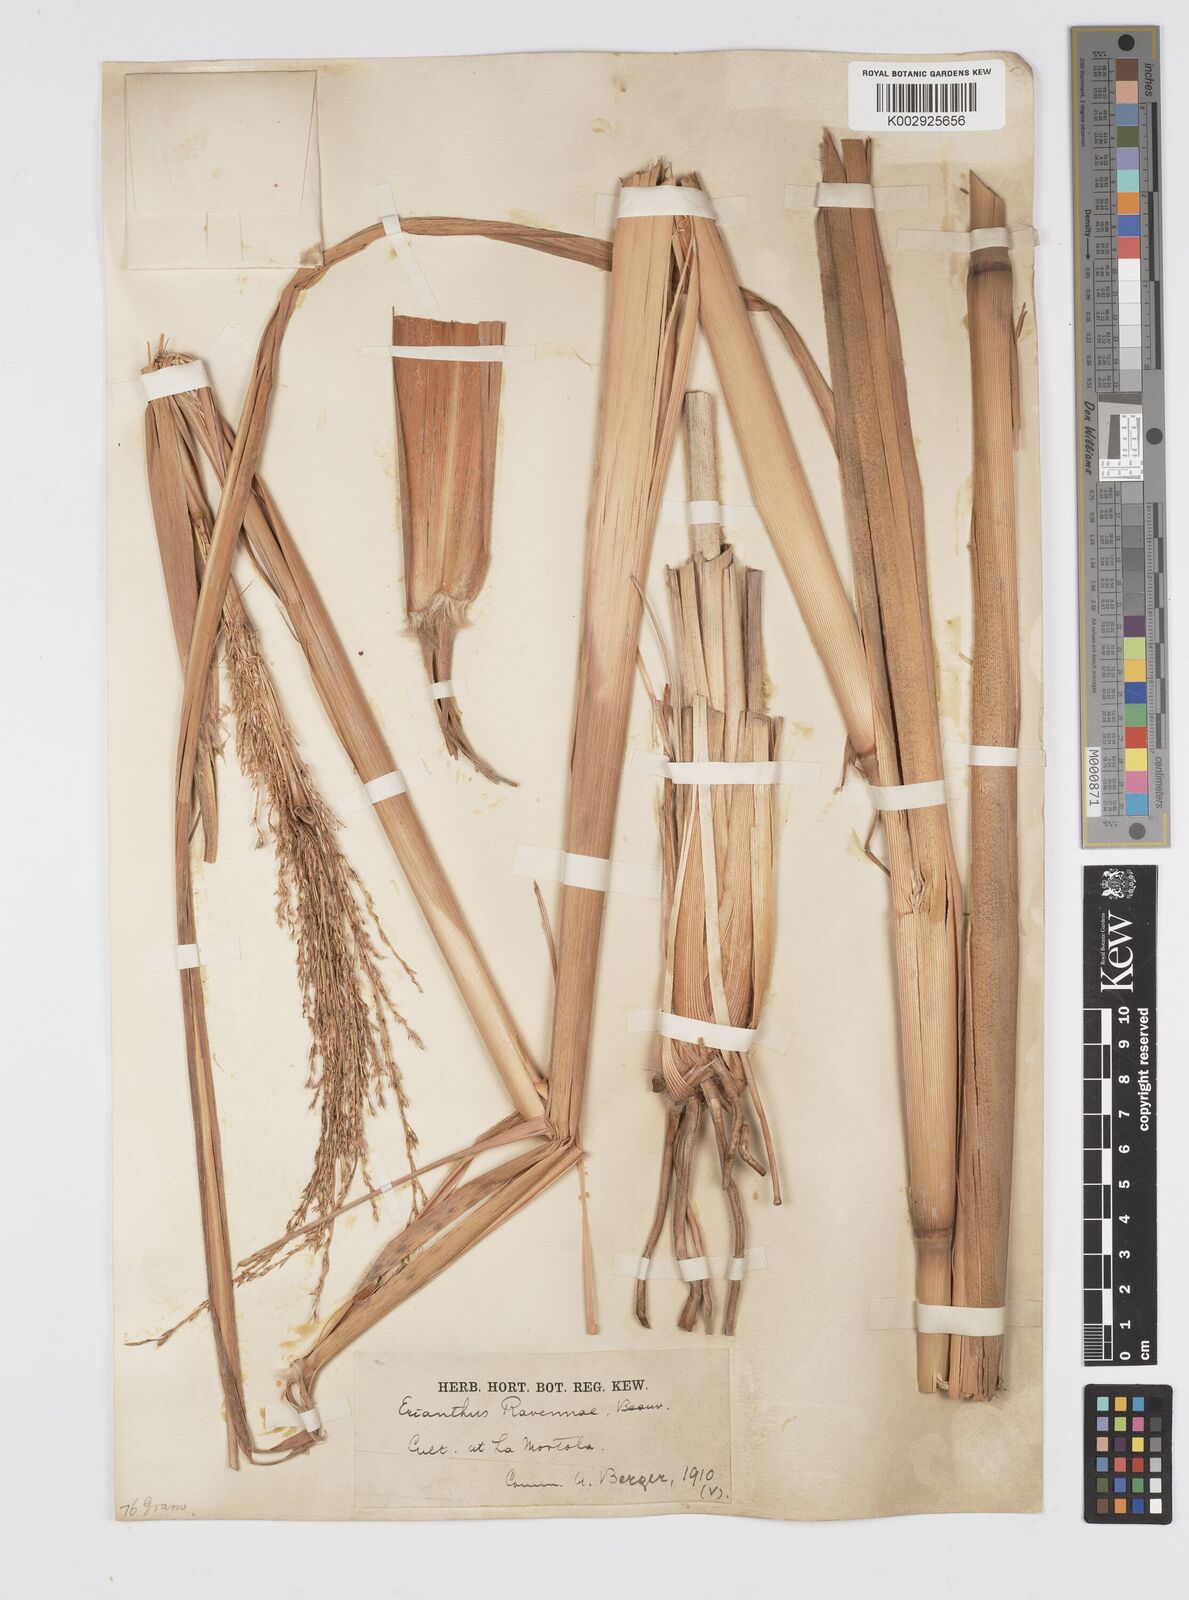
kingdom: Plantae
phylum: Tracheophyta
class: Liliopsida
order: Poales
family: Poaceae
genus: Tripidium
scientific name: Tripidium ravennae
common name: Ravenna grass
